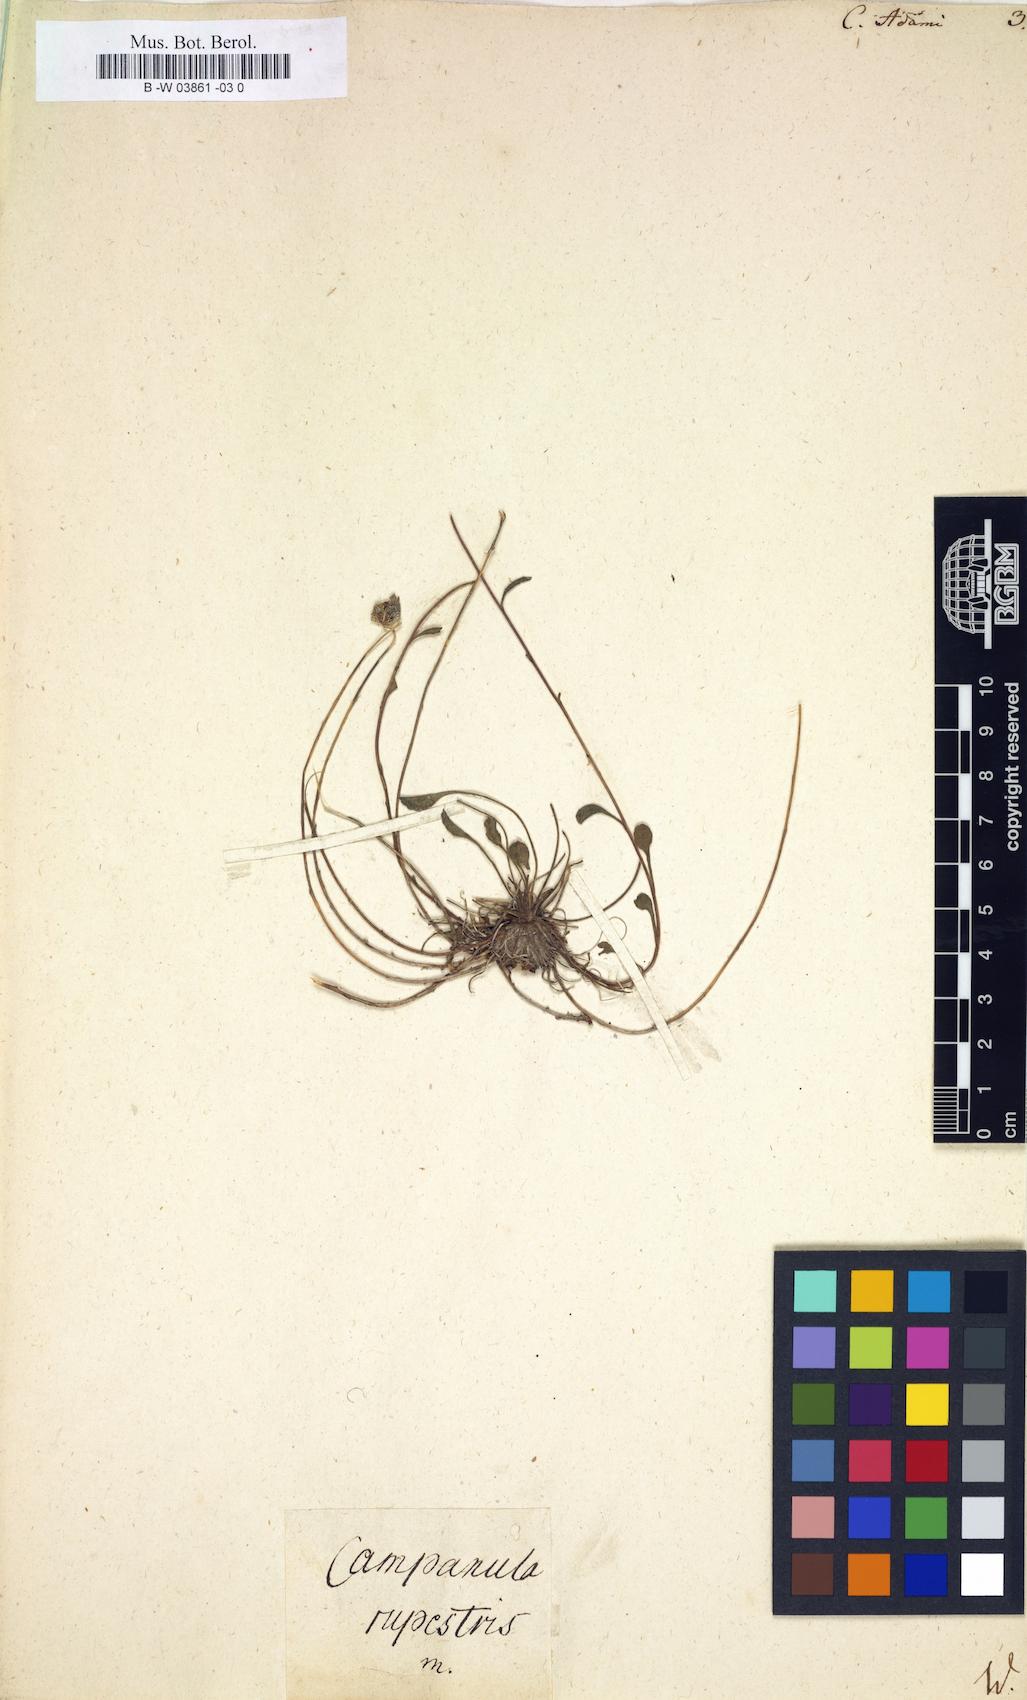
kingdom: Plantae
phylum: Tracheophyta
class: Magnoliopsida
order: Asterales
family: Campanulaceae
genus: Campanula
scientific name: Campanula bellidifolia
